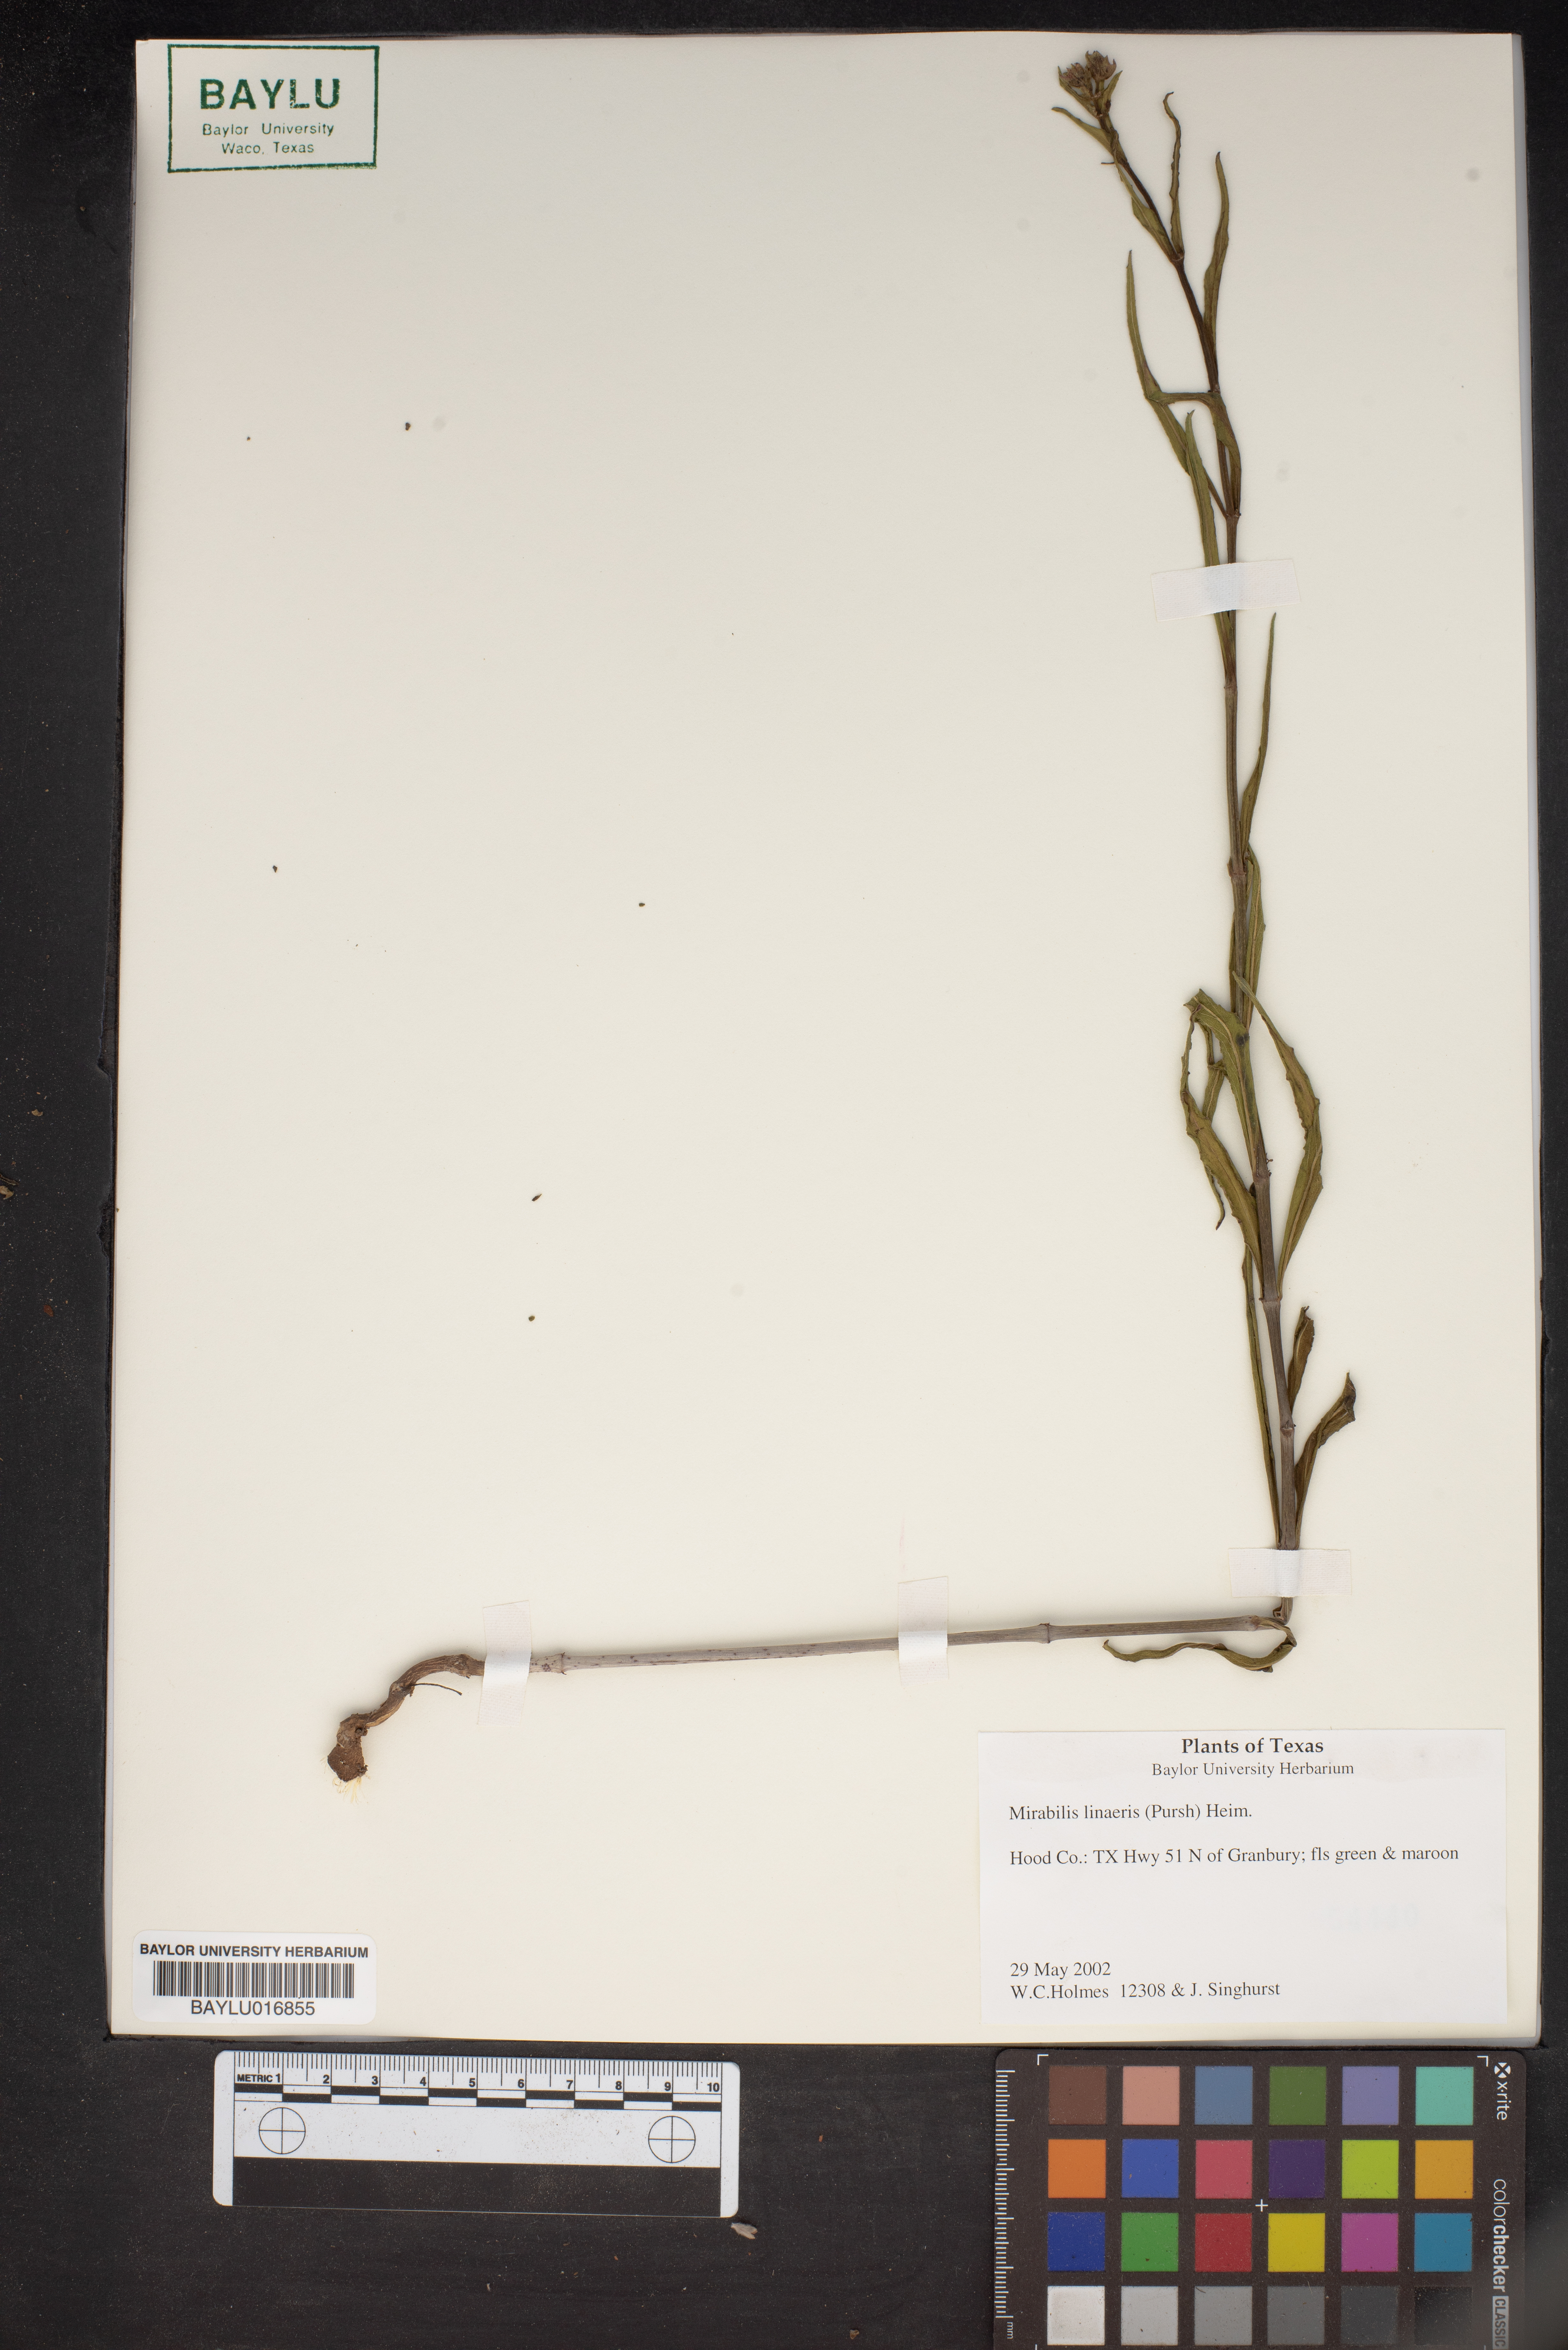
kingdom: Plantae
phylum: Tracheophyta
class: Magnoliopsida
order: Caryophyllales
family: Nyctaginaceae
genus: Mirabilis
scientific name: Mirabilis linearis
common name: Linear-leaved four-o'clock
